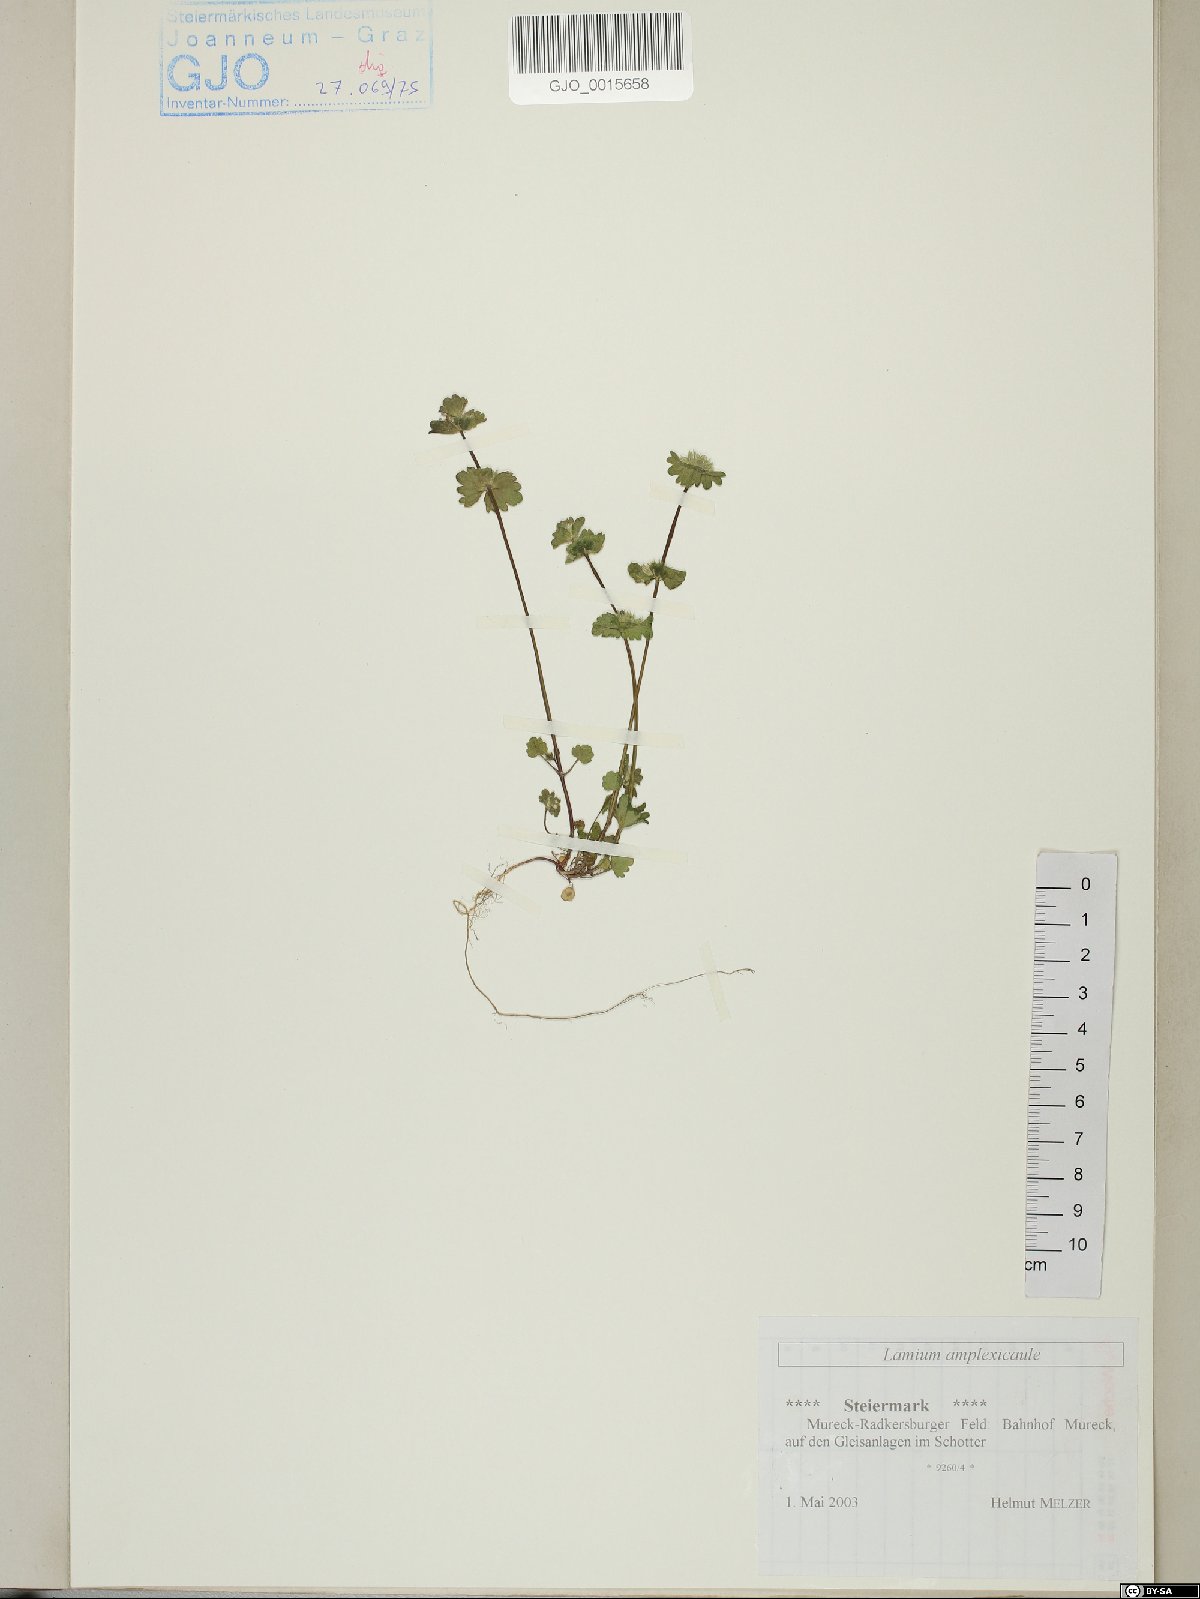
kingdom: Plantae
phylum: Tracheophyta
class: Magnoliopsida
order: Lamiales
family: Lamiaceae
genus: Lamium
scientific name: Lamium amplexicaule
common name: Henbit dead-nettle
